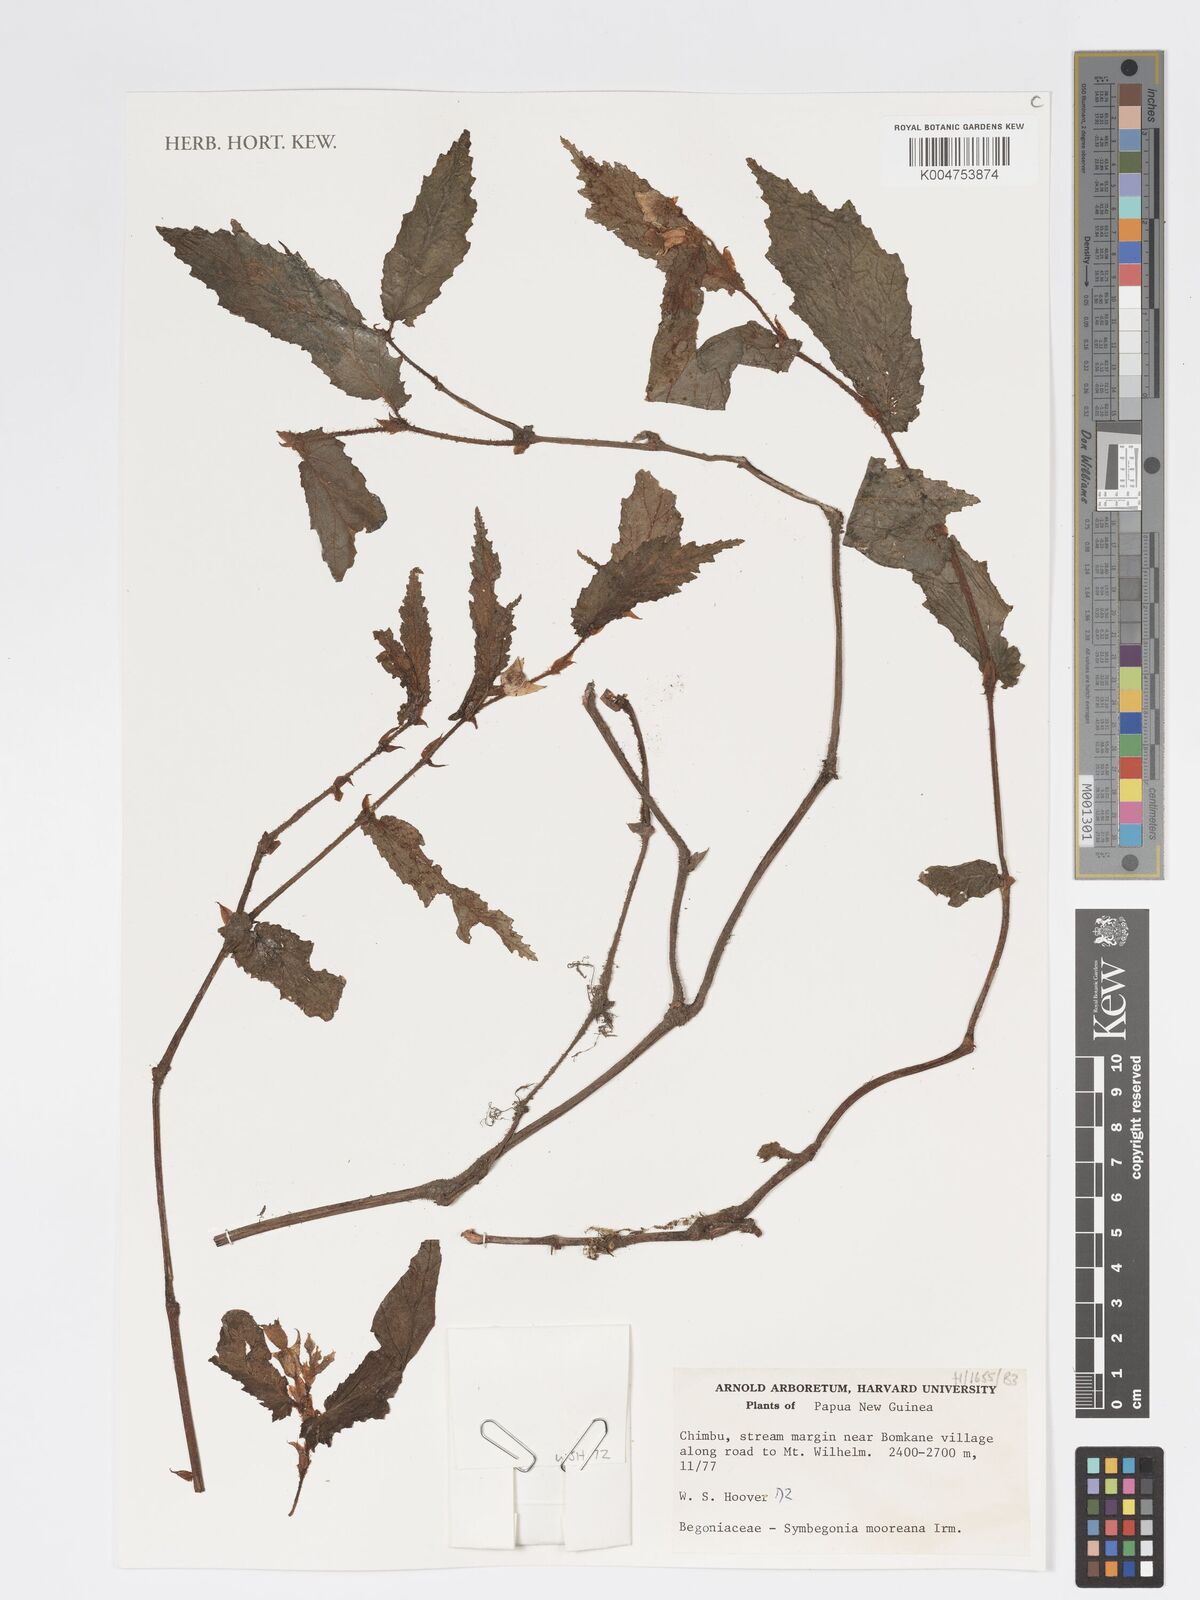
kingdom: Plantae
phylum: Tracheophyta
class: Magnoliopsida
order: Cucurbitales
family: Begoniaceae
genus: Begonia
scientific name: Begonia
